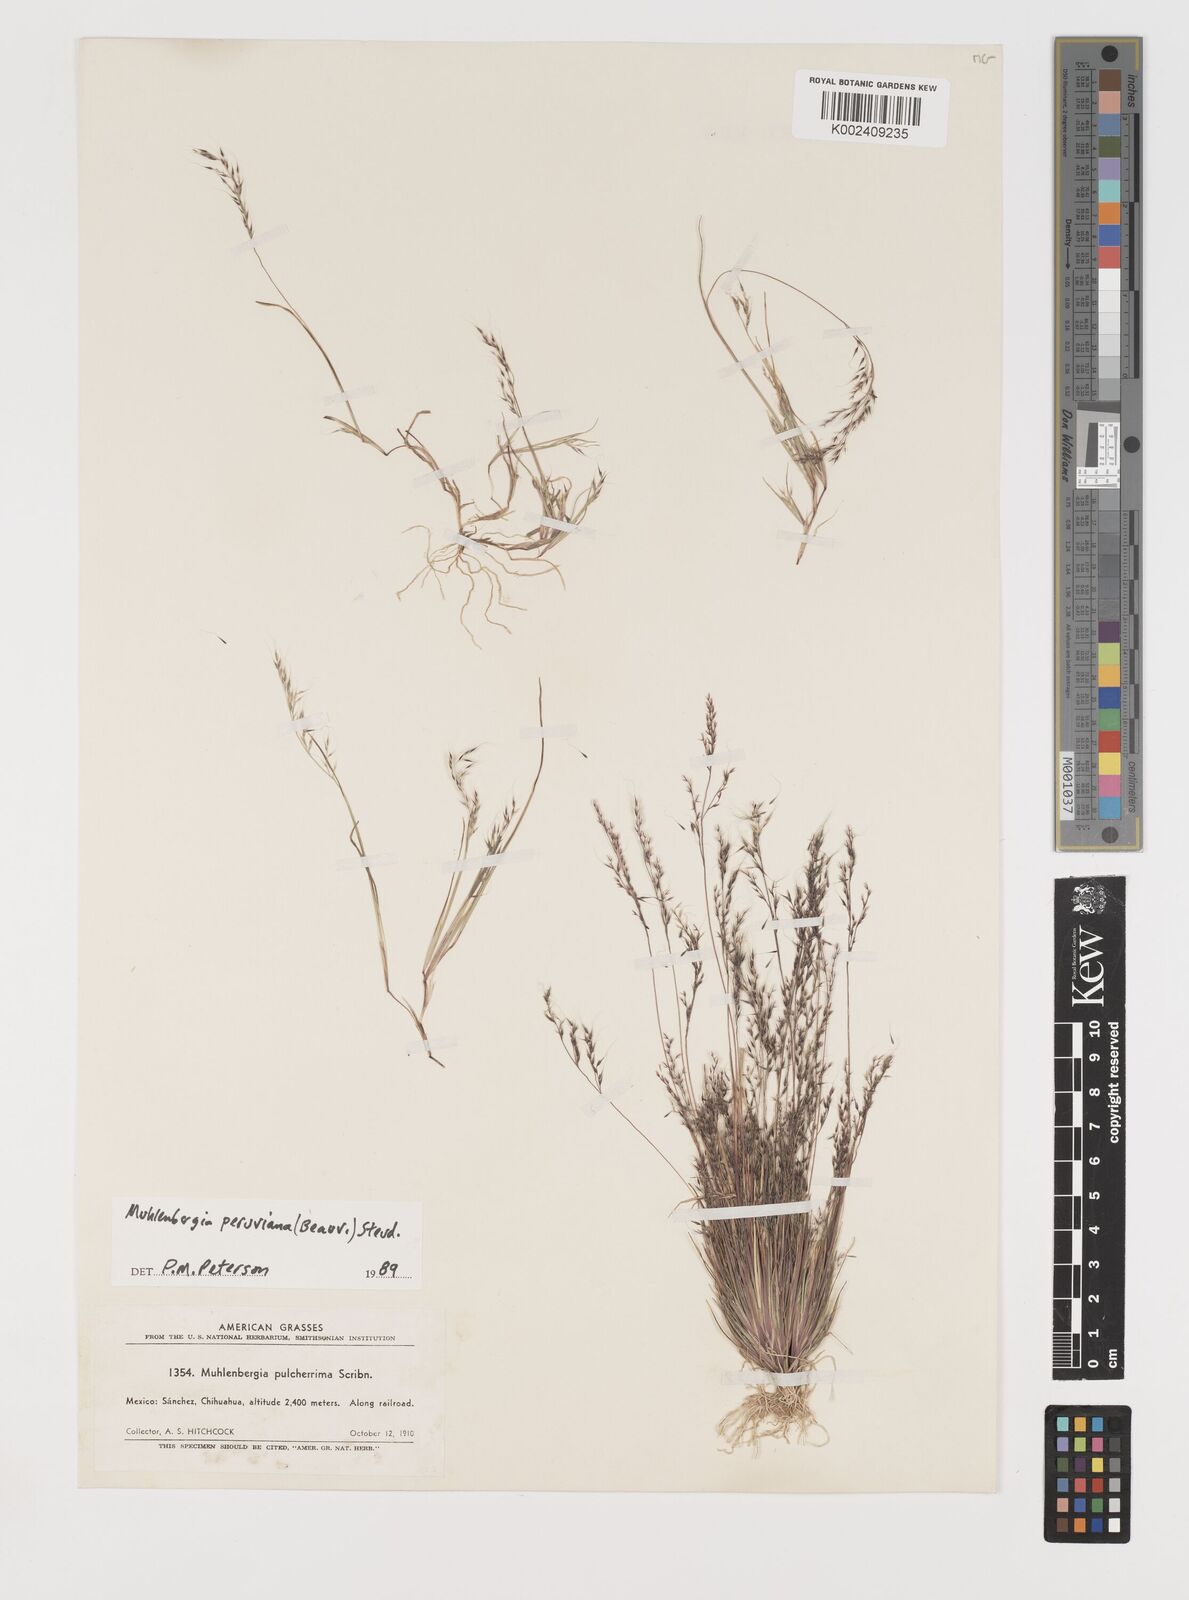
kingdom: Plantae
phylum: Tracheophyta
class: Liliopsida
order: Poales
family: Poaceae
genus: Muhlenbergia
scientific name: Muhlenbergia peruviana
